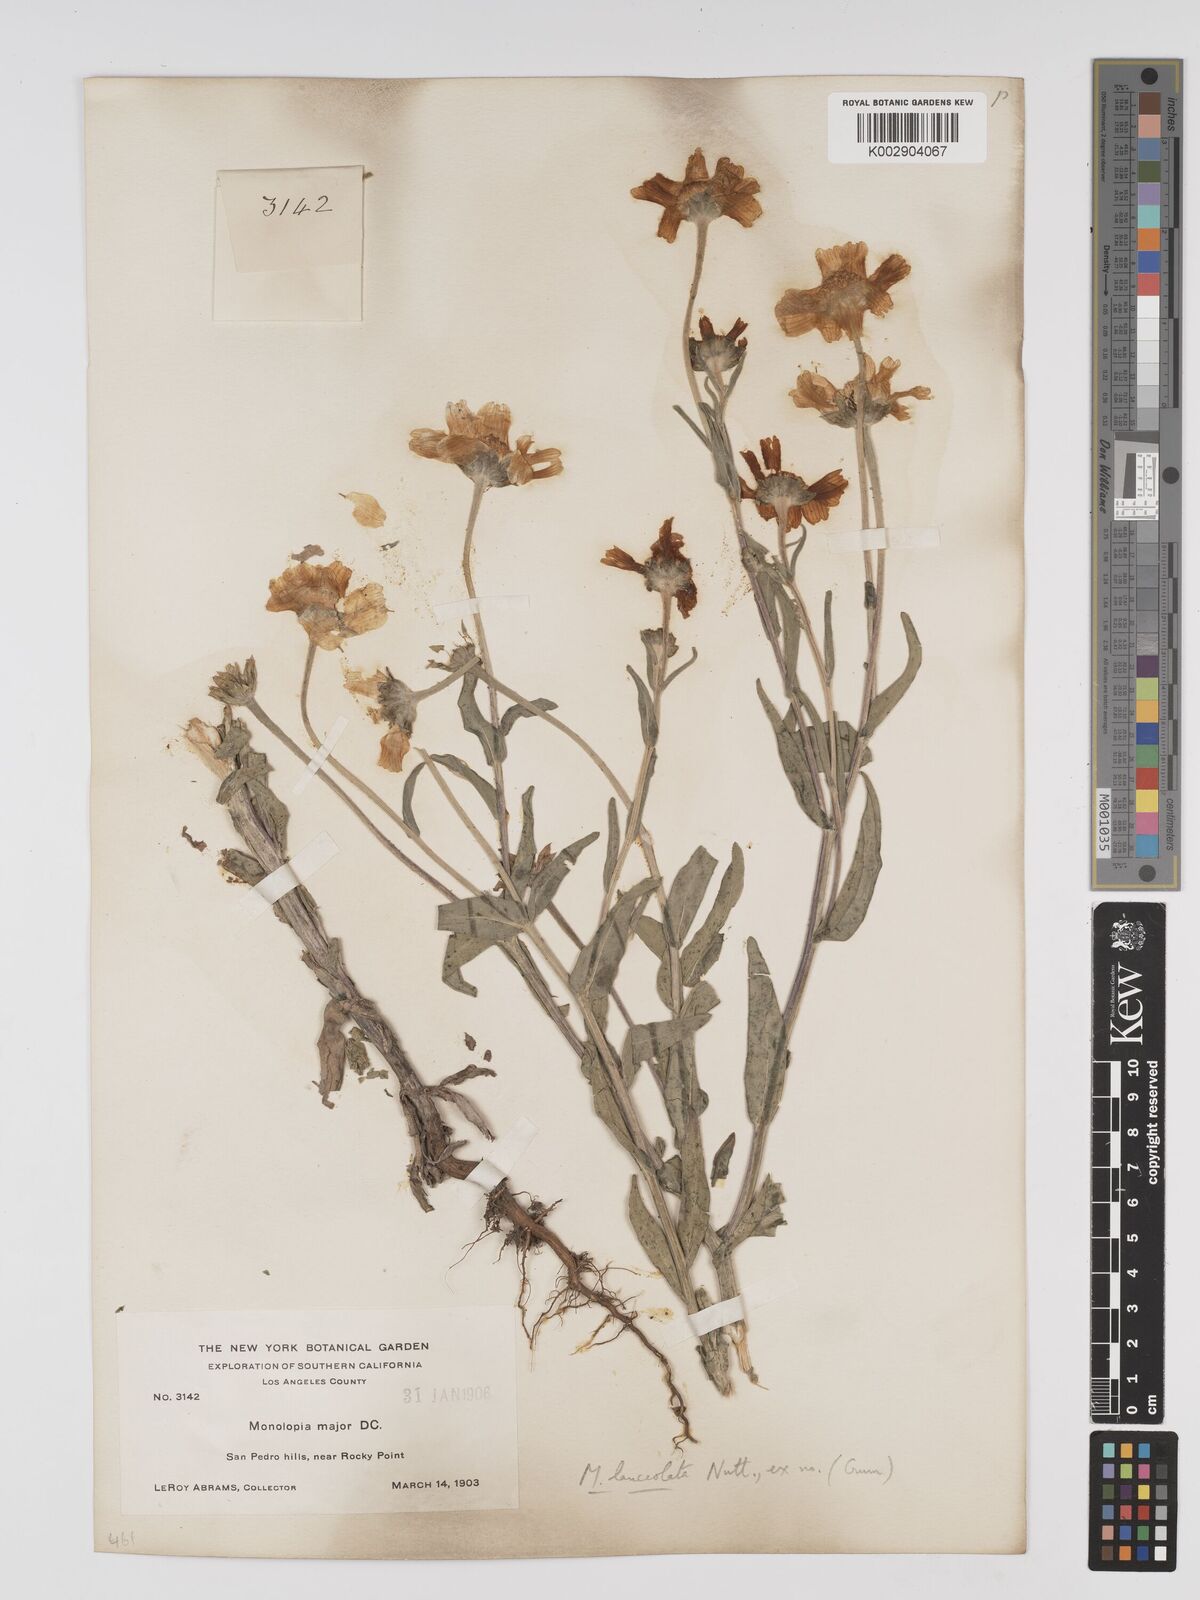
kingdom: Plantae
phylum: Tracheophyta
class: Magnoliopsida
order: Asterales
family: Asteraceae
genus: Monolopia
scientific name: Monolopia lanceolata
